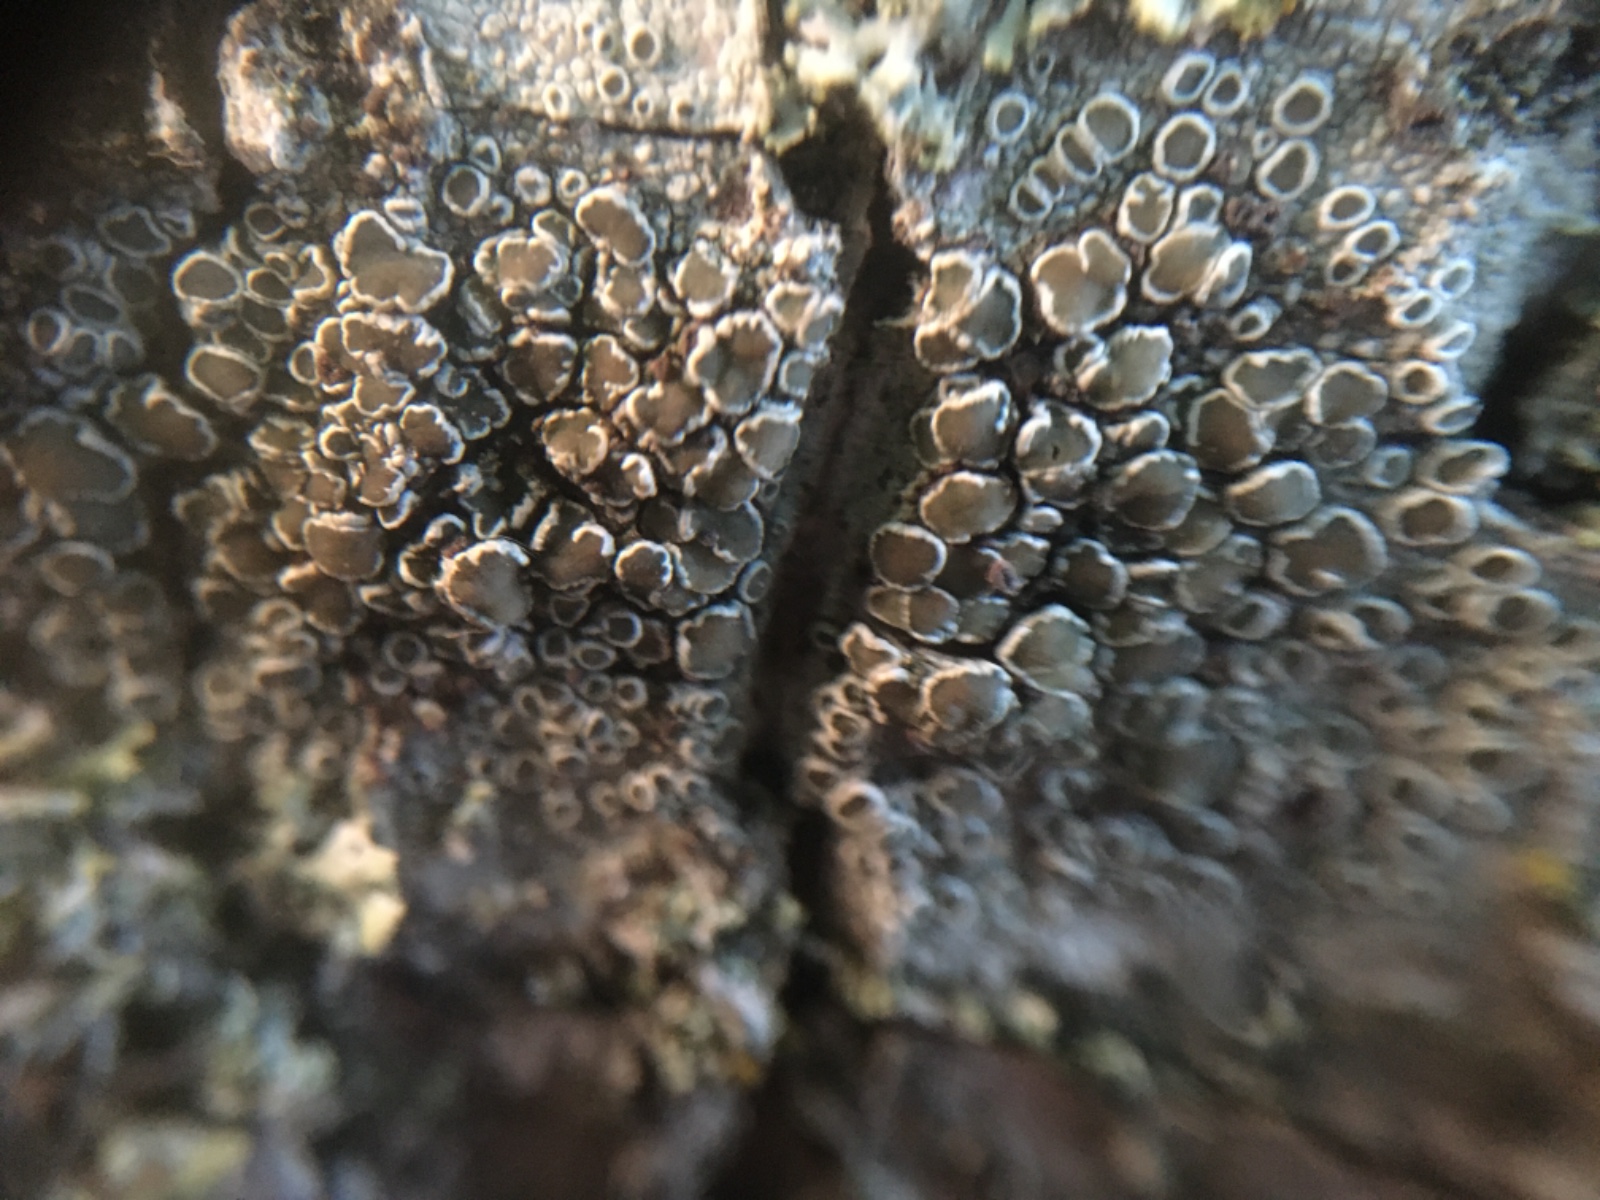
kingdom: Fungi
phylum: Ascomycota
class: Lecanoromycetes
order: Lecanorales
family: Lecanoraceae
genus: Lecanora
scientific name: Lecanora chlarotera
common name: brun kantskivelav
